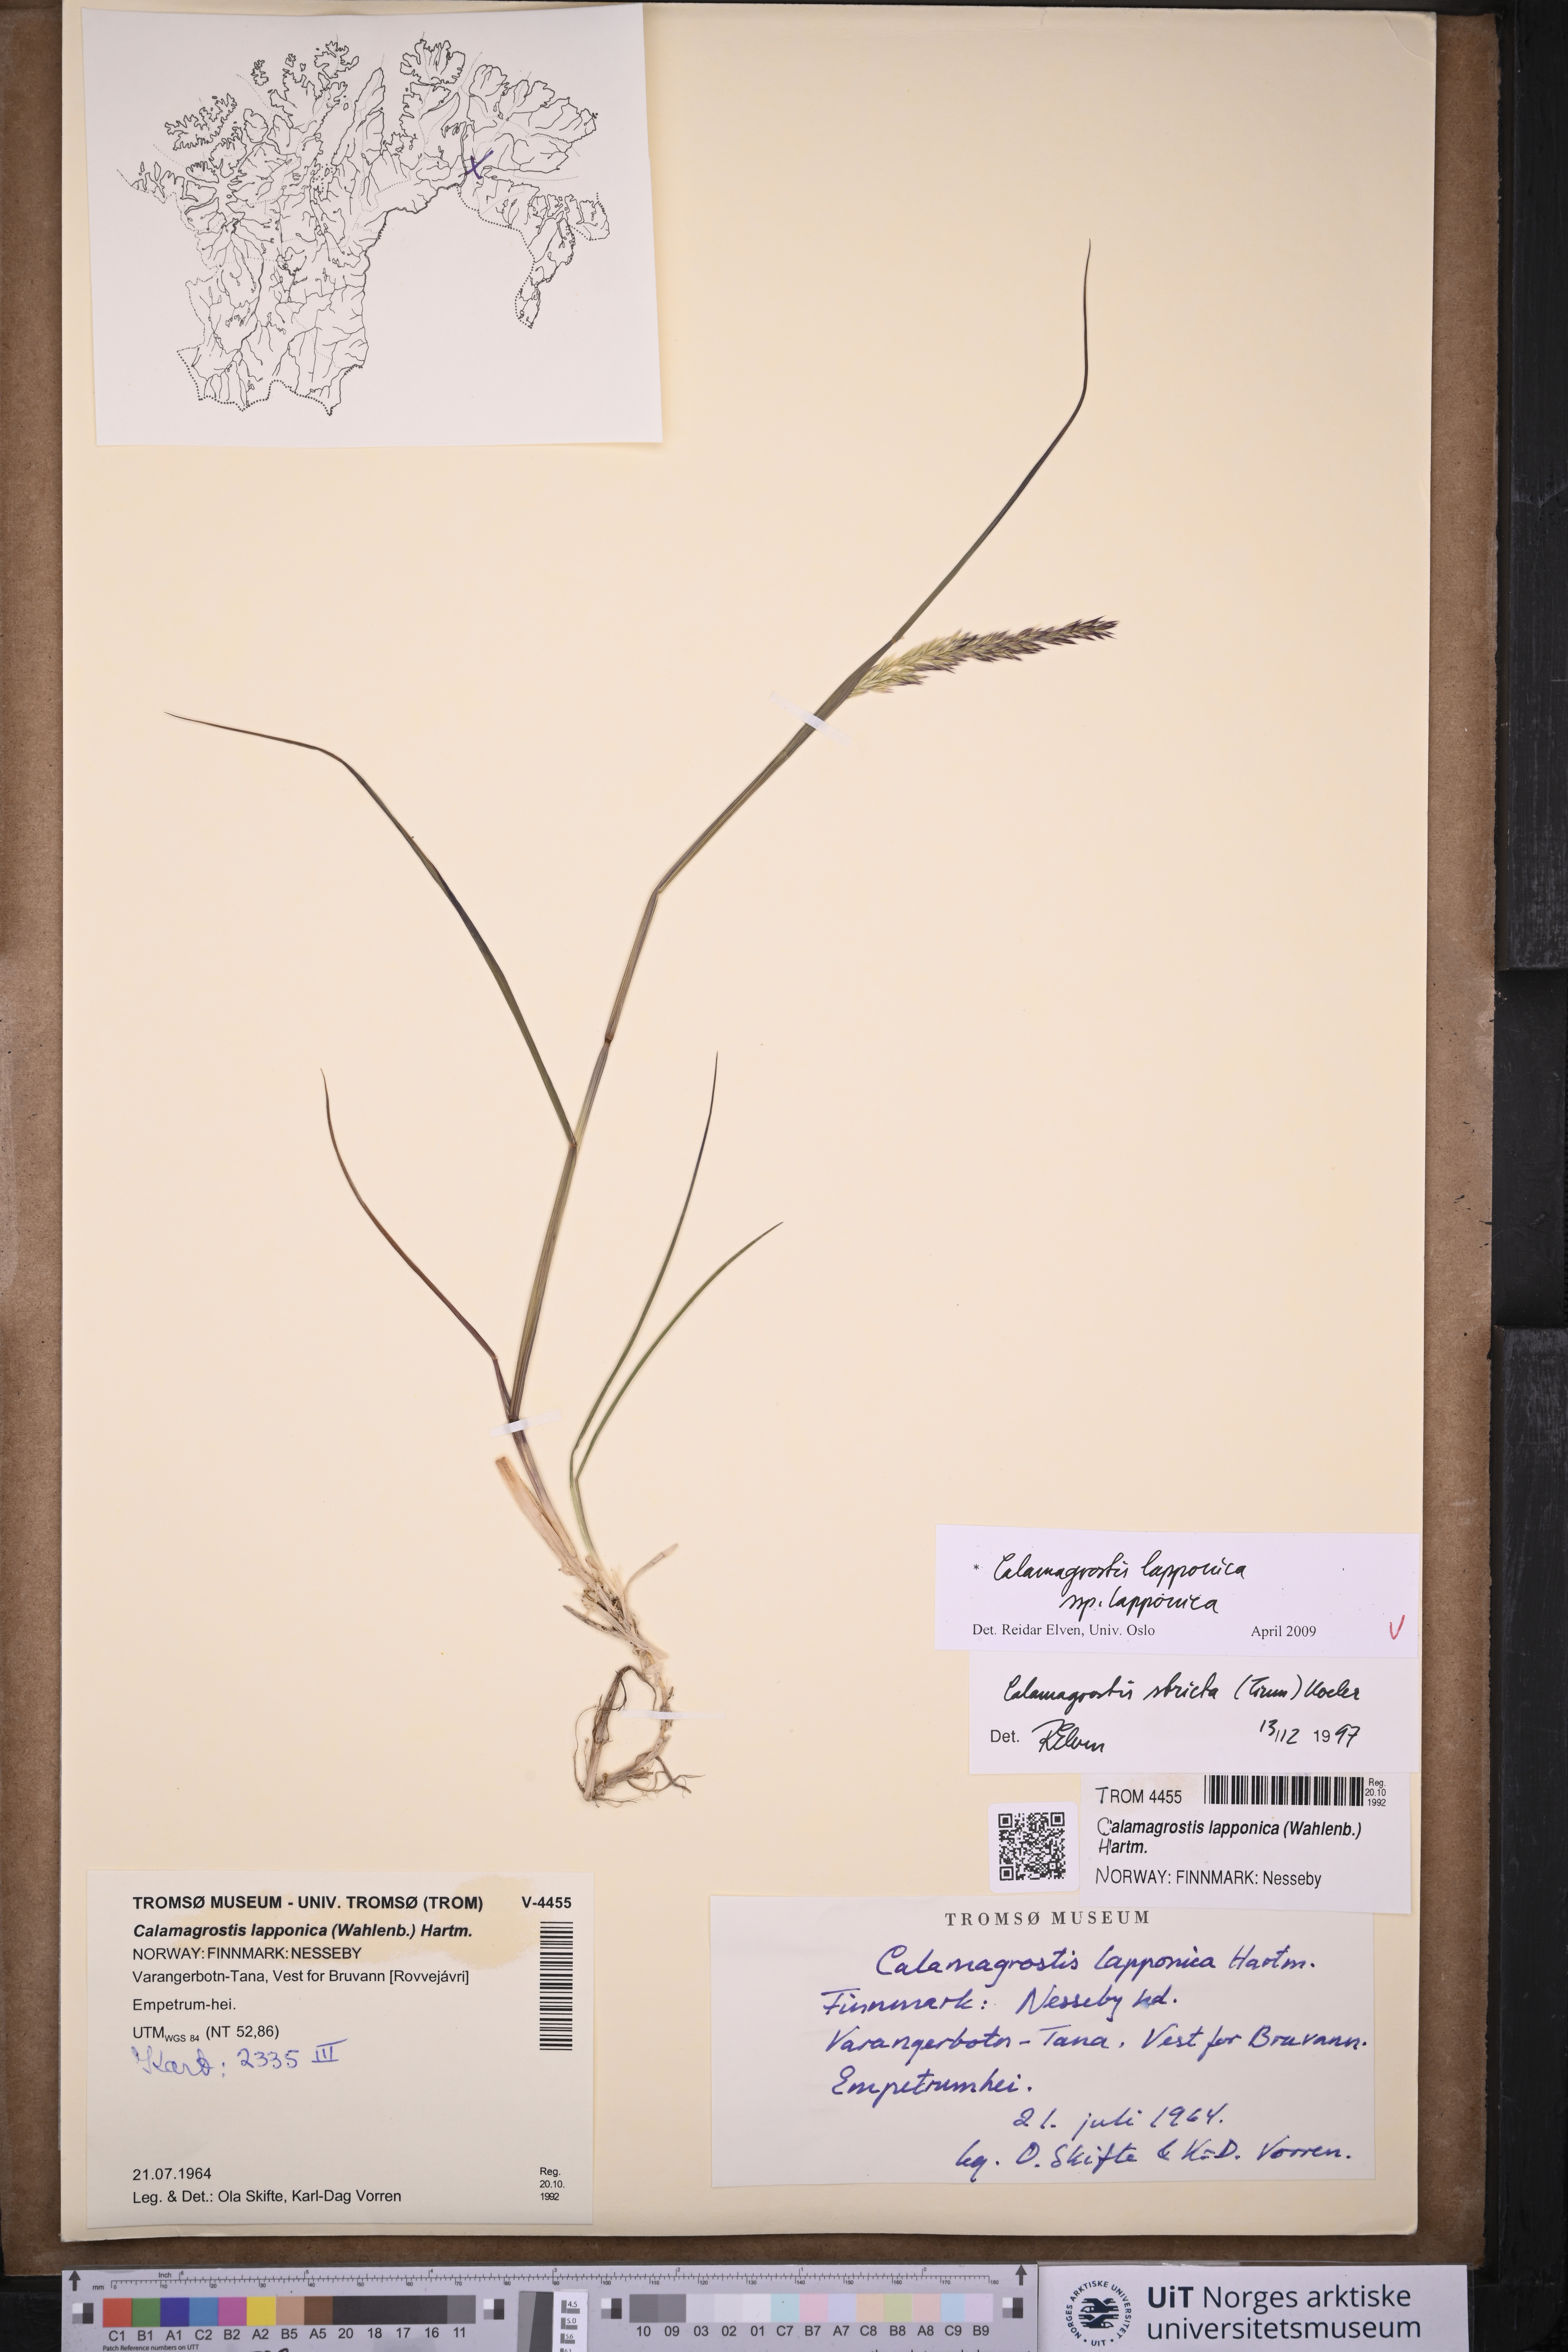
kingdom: Plantae
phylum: Tracheophyta
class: Liliopsida
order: Poales
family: Poaceae
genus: Calamagrostis
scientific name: Calamagrostis lapponica
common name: Lapland reedgrass
